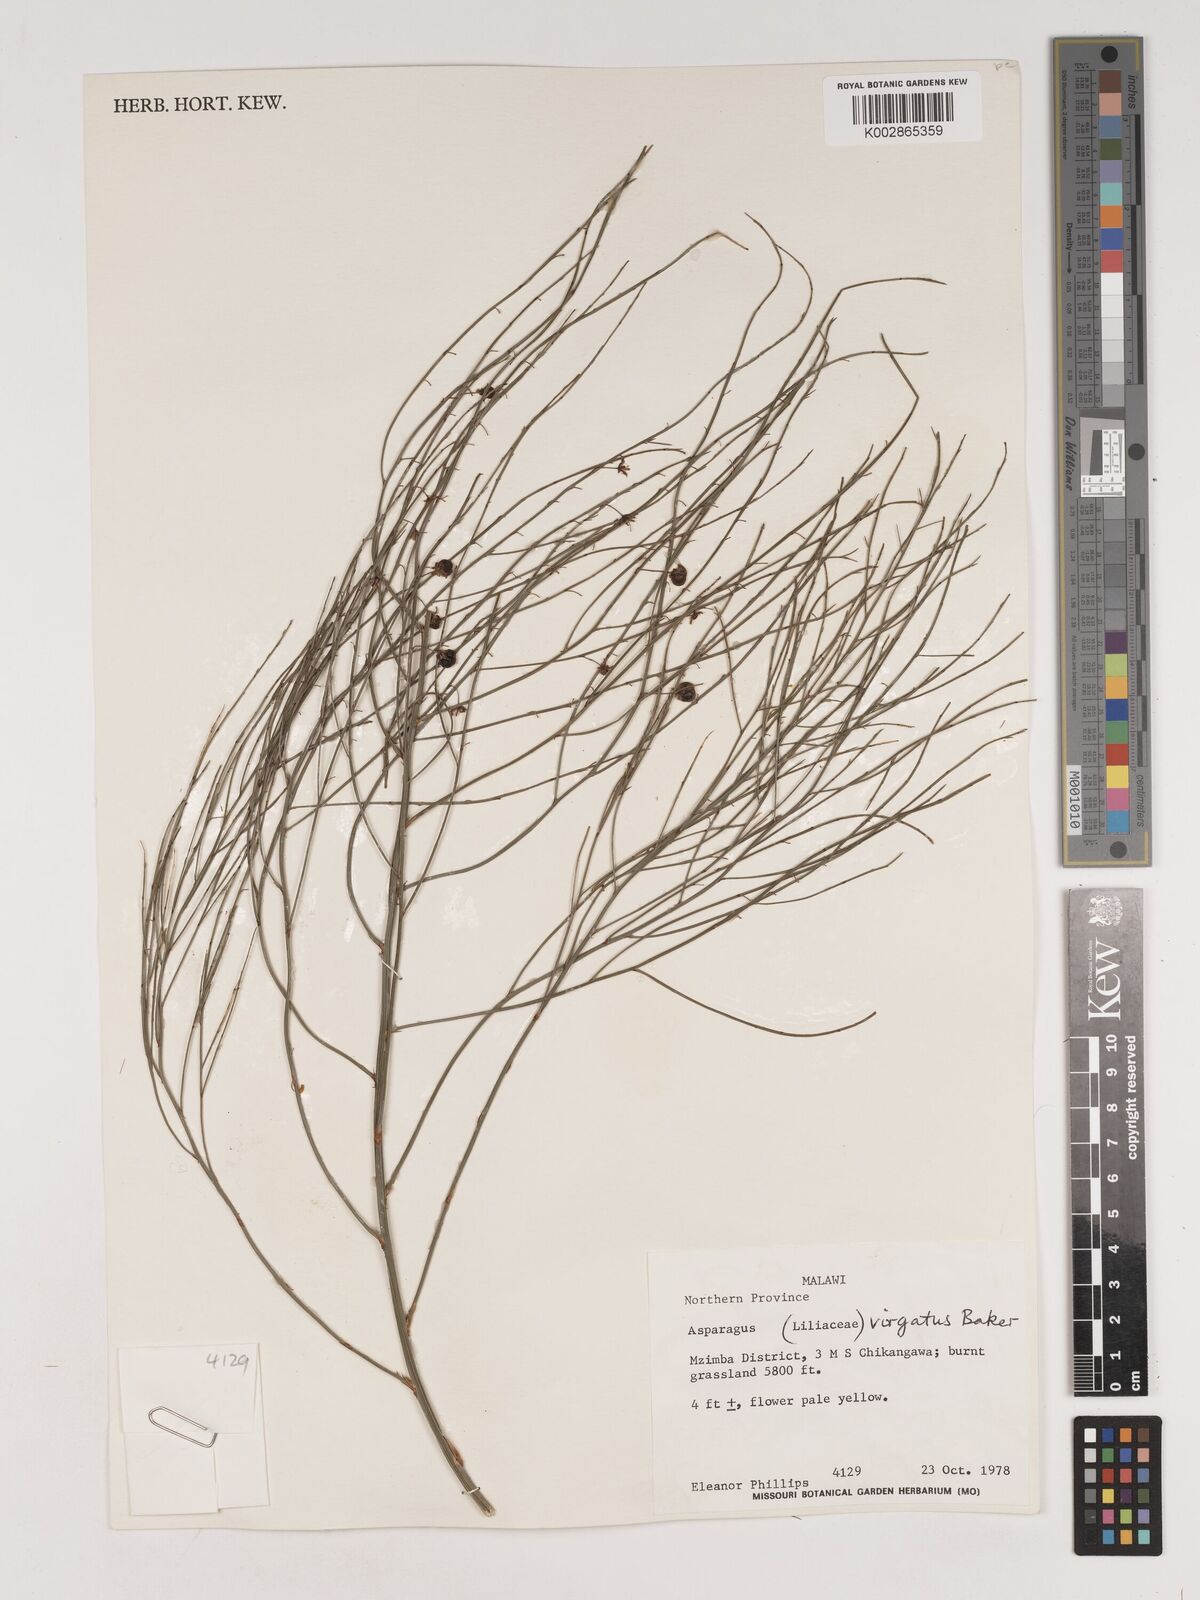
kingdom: Plantae
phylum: Tracheophyta
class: Liliopsida
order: Asparagales
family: Asparagaceae
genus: Asparagus
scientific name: Asparagus virgatus
